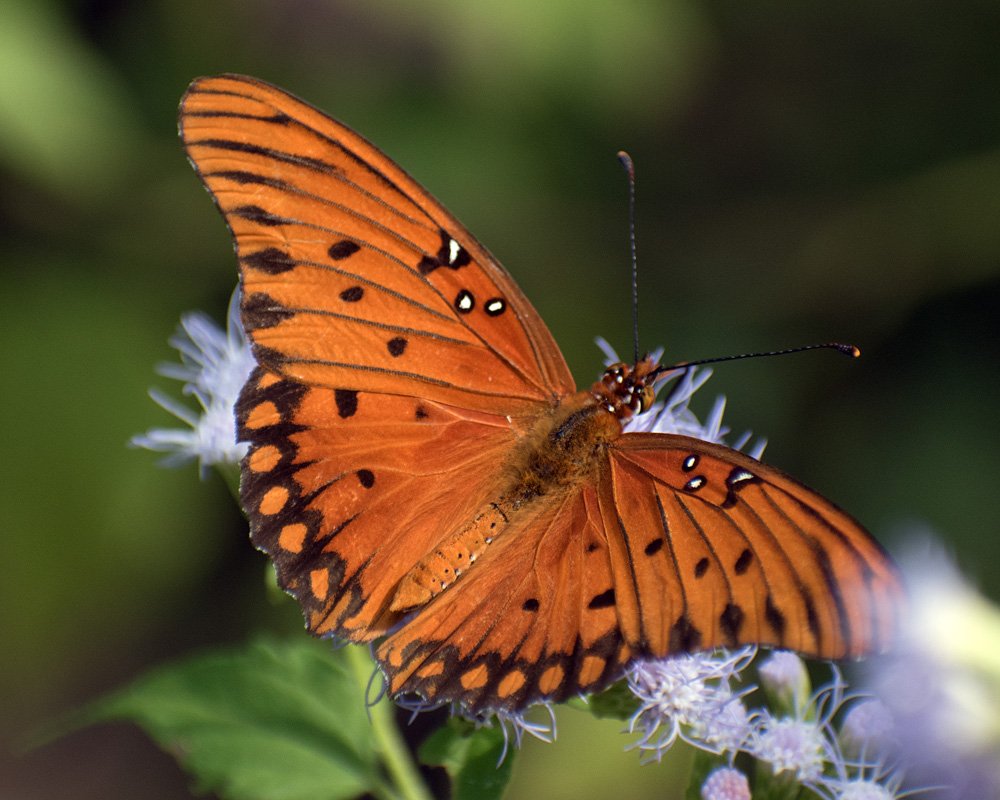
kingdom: Animalia
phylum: Arthropoda
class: Insecta
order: Lepidoptera
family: Nymphalidae
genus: Dione
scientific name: Dione vanillae
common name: Gulf Fritillary
